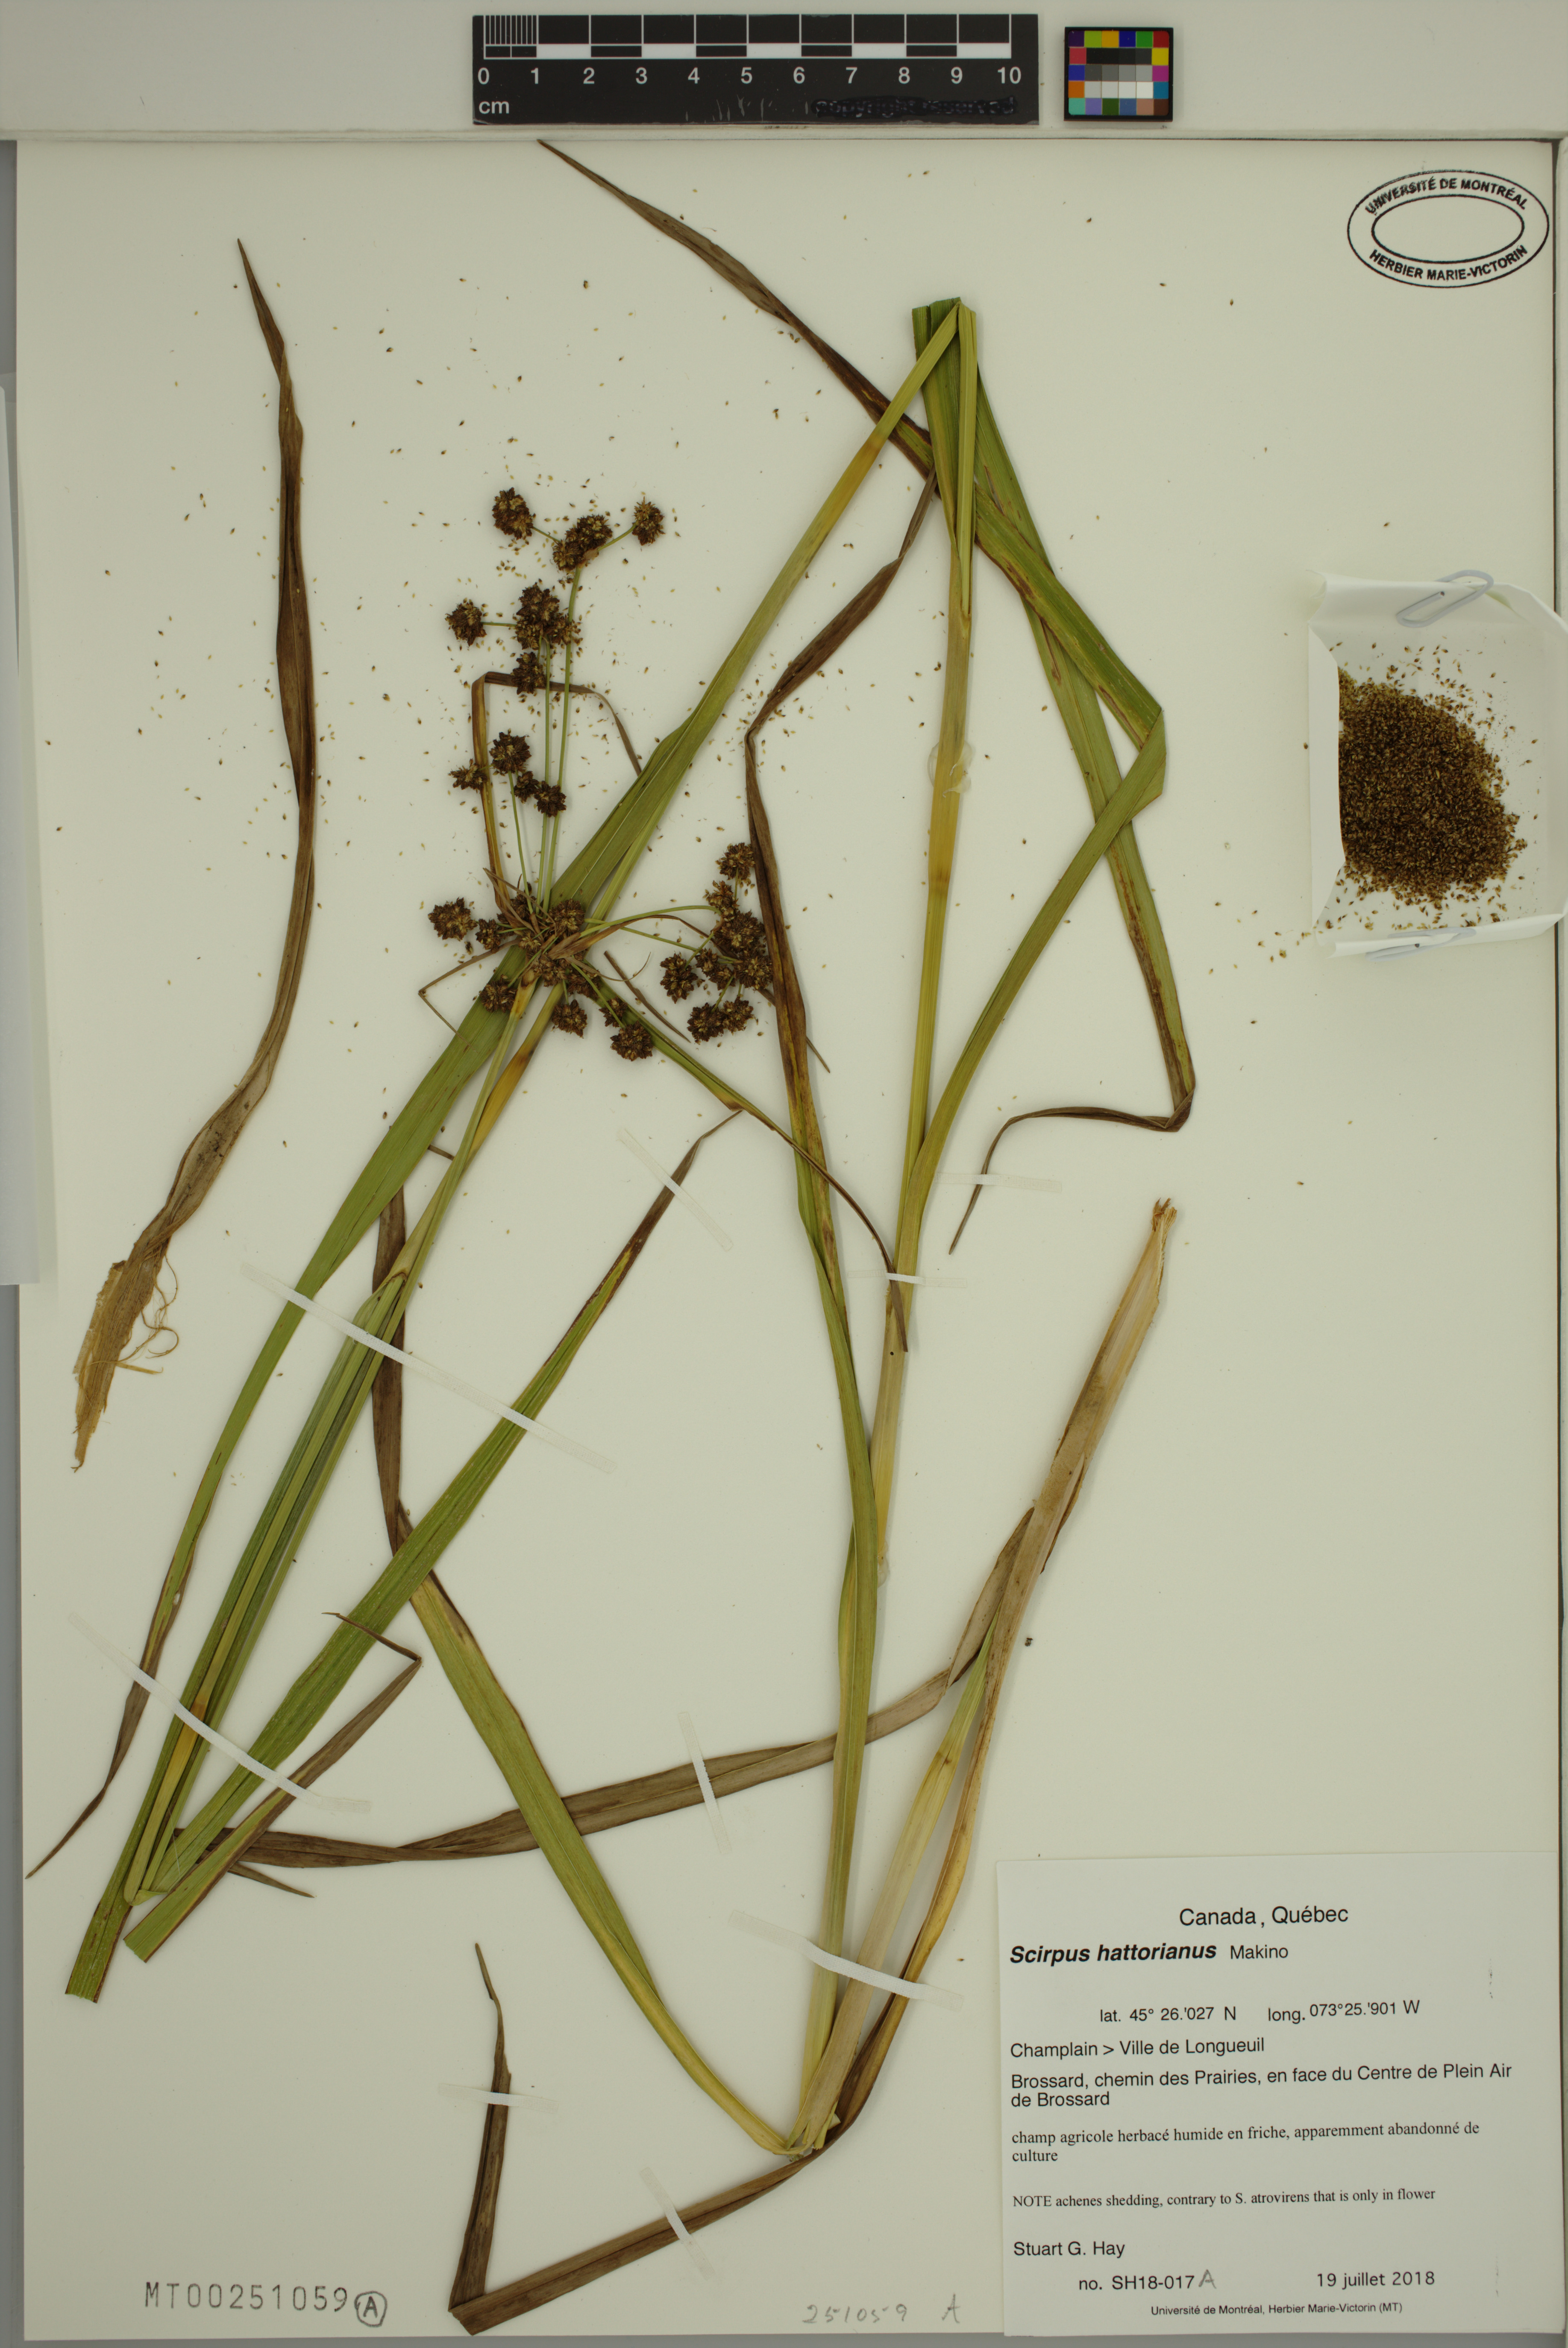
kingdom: Plantae
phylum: Tracheophyta
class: Liliopsida
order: Poales
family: Cyperaceae
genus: Scirpus
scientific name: Scirpus hattorianus
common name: Early dark-green bulrush
